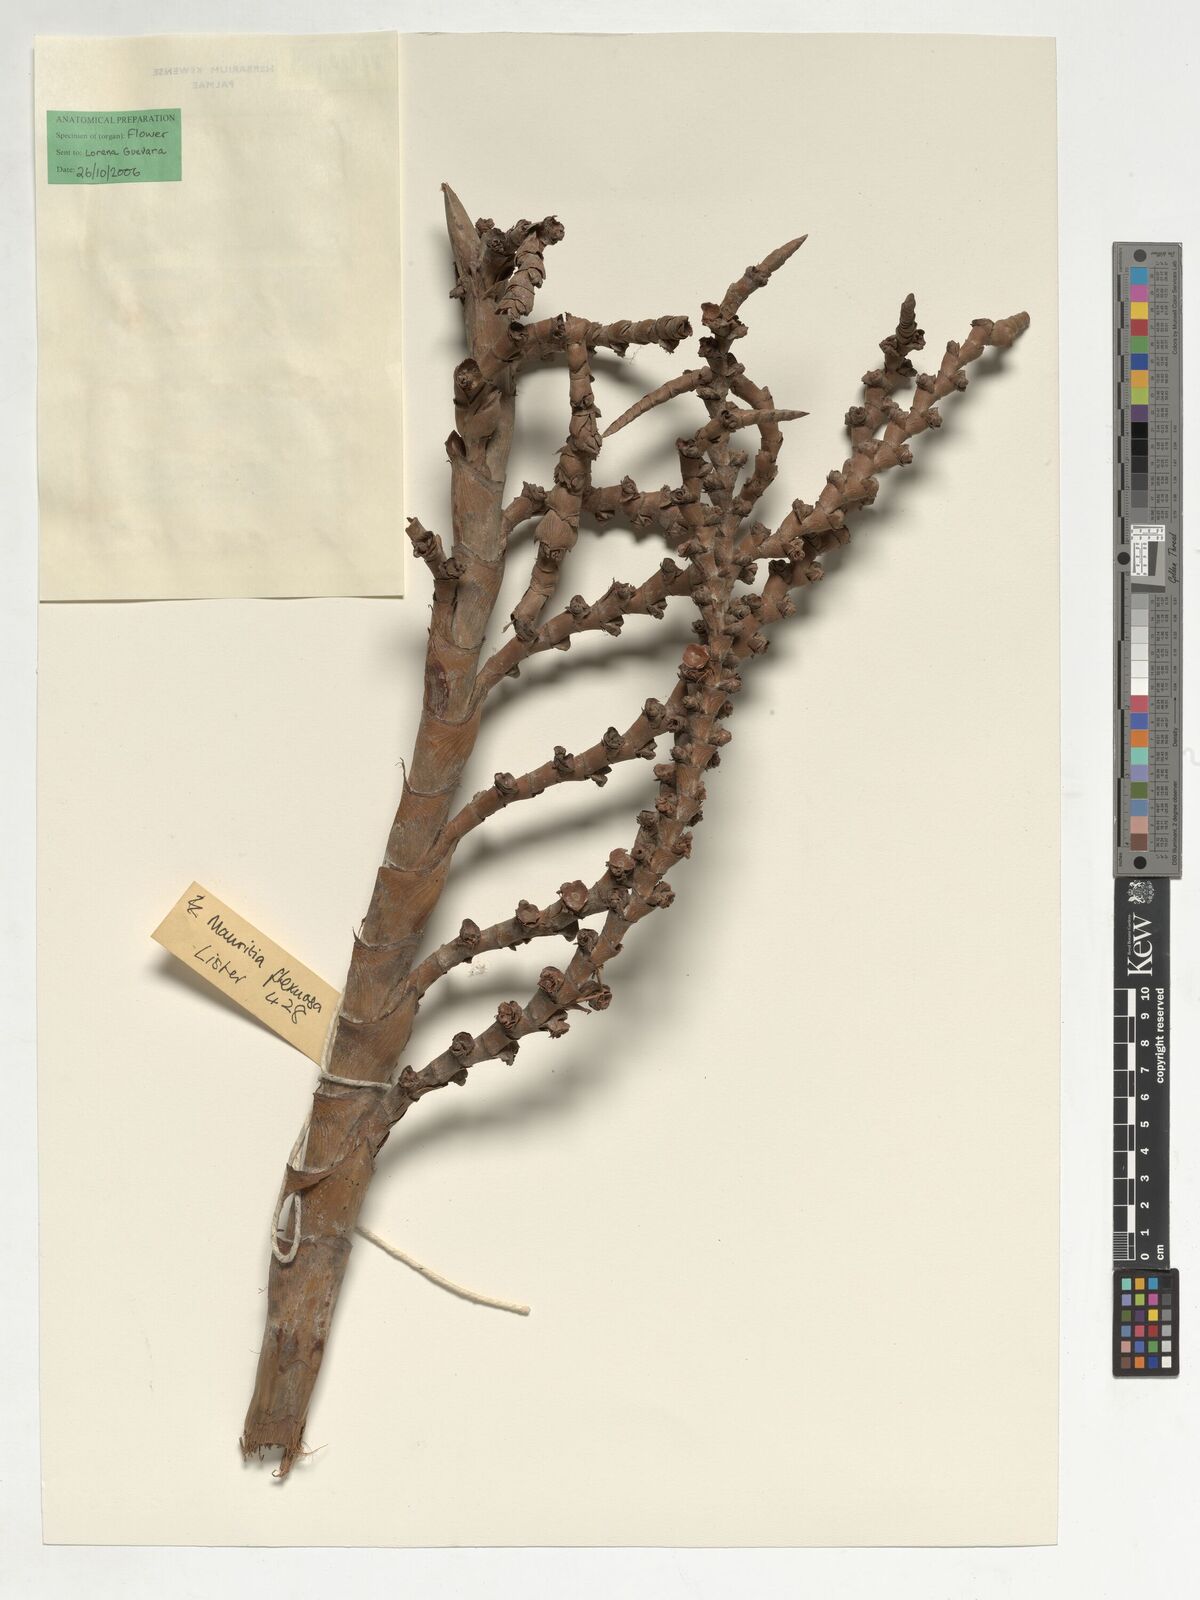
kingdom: Plantae
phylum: Tracheophyta
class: Liliopsida
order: Arecales
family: Arecaceae
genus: Mauritia
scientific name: Mauritia flexuosa
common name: Tree-of-life
